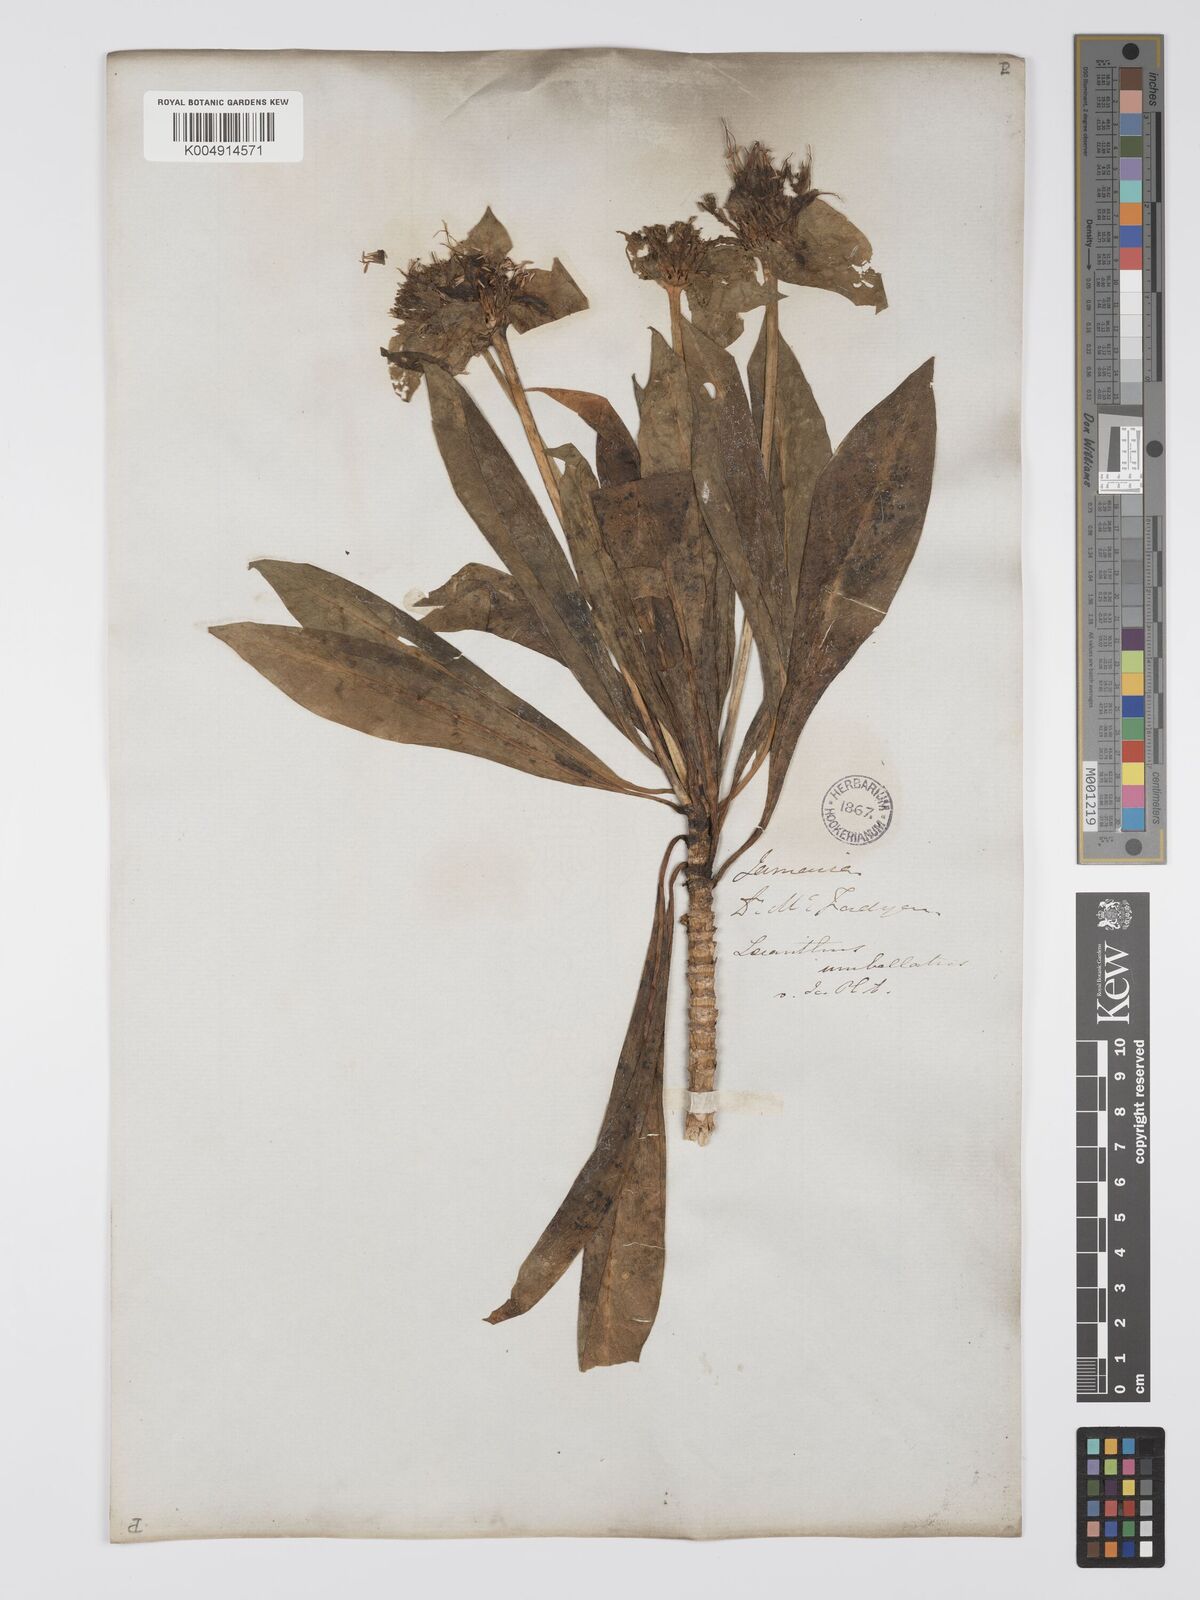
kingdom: Plantae
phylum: Tracheophyta
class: Magnoliopsida
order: Gentianales
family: Gentianaceae
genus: Lisianthus
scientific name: Lisianthus umbellatus
